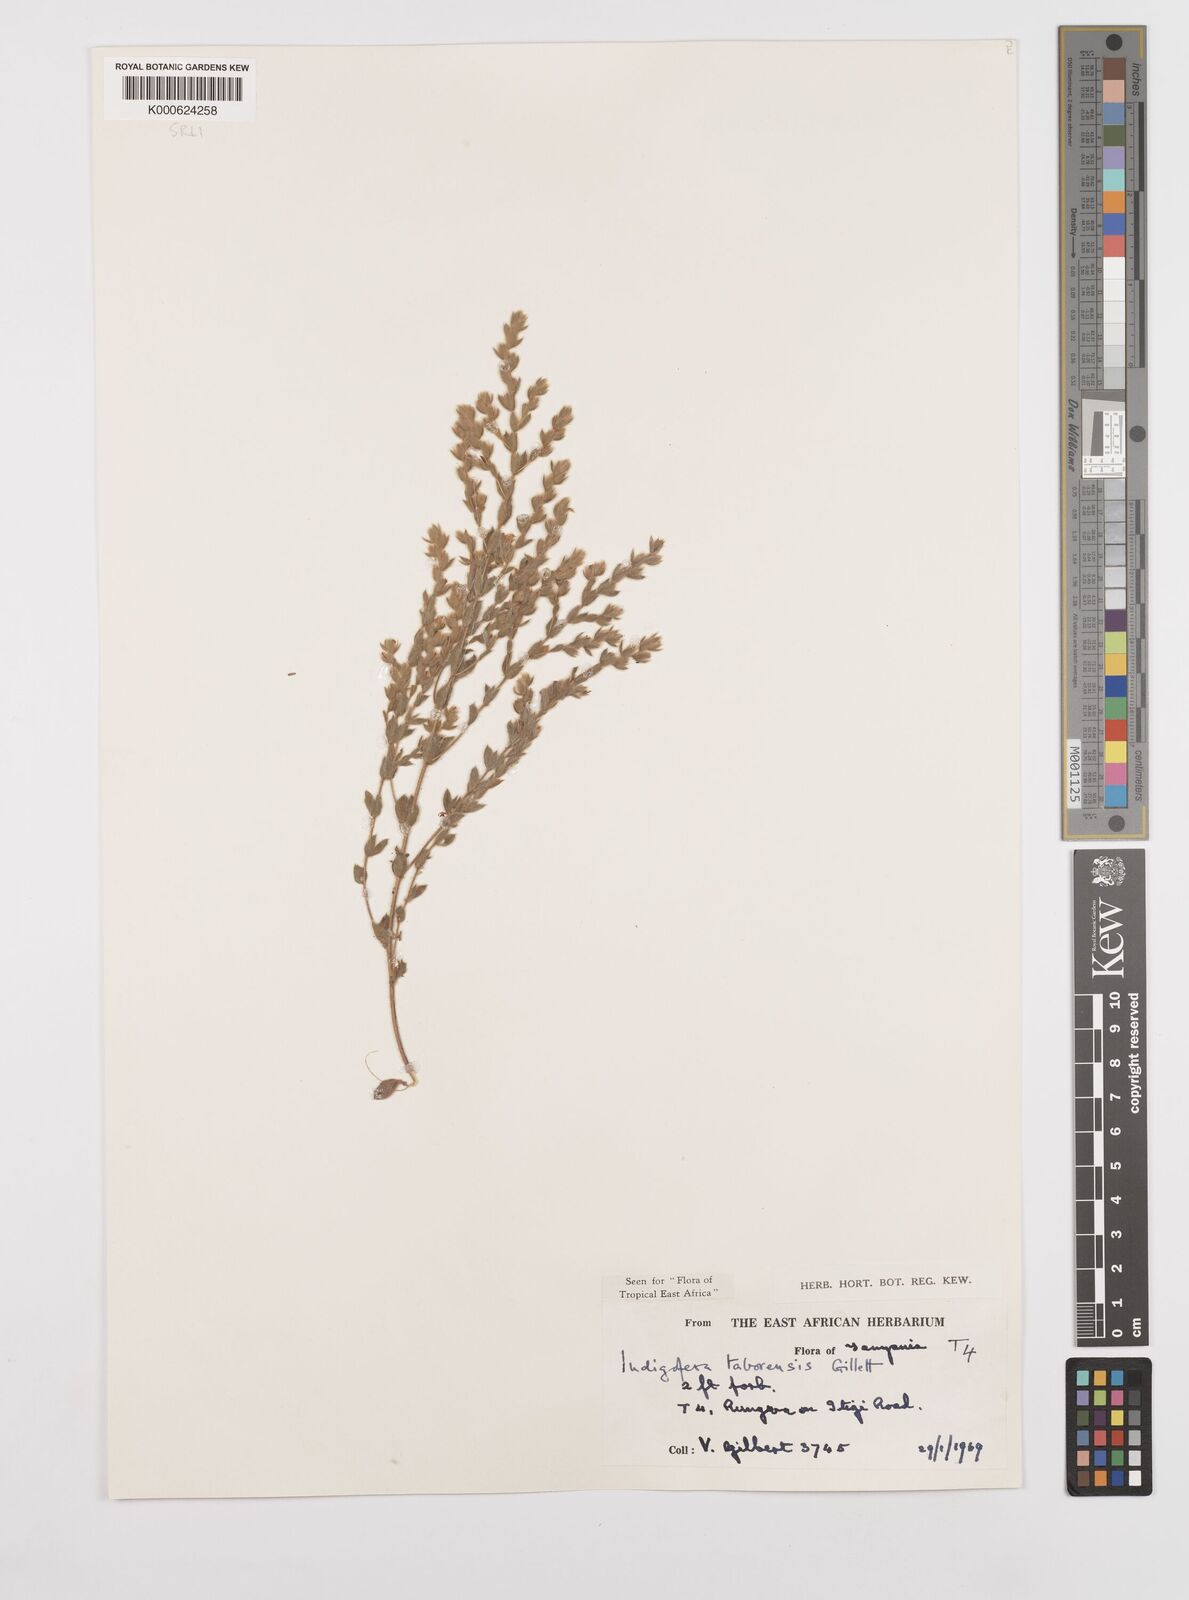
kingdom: Plantae
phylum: Tracheophyta
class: Magnoliopsida
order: Fabales
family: Fabaceae
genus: Indigofera
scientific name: Indigofera taborensis
